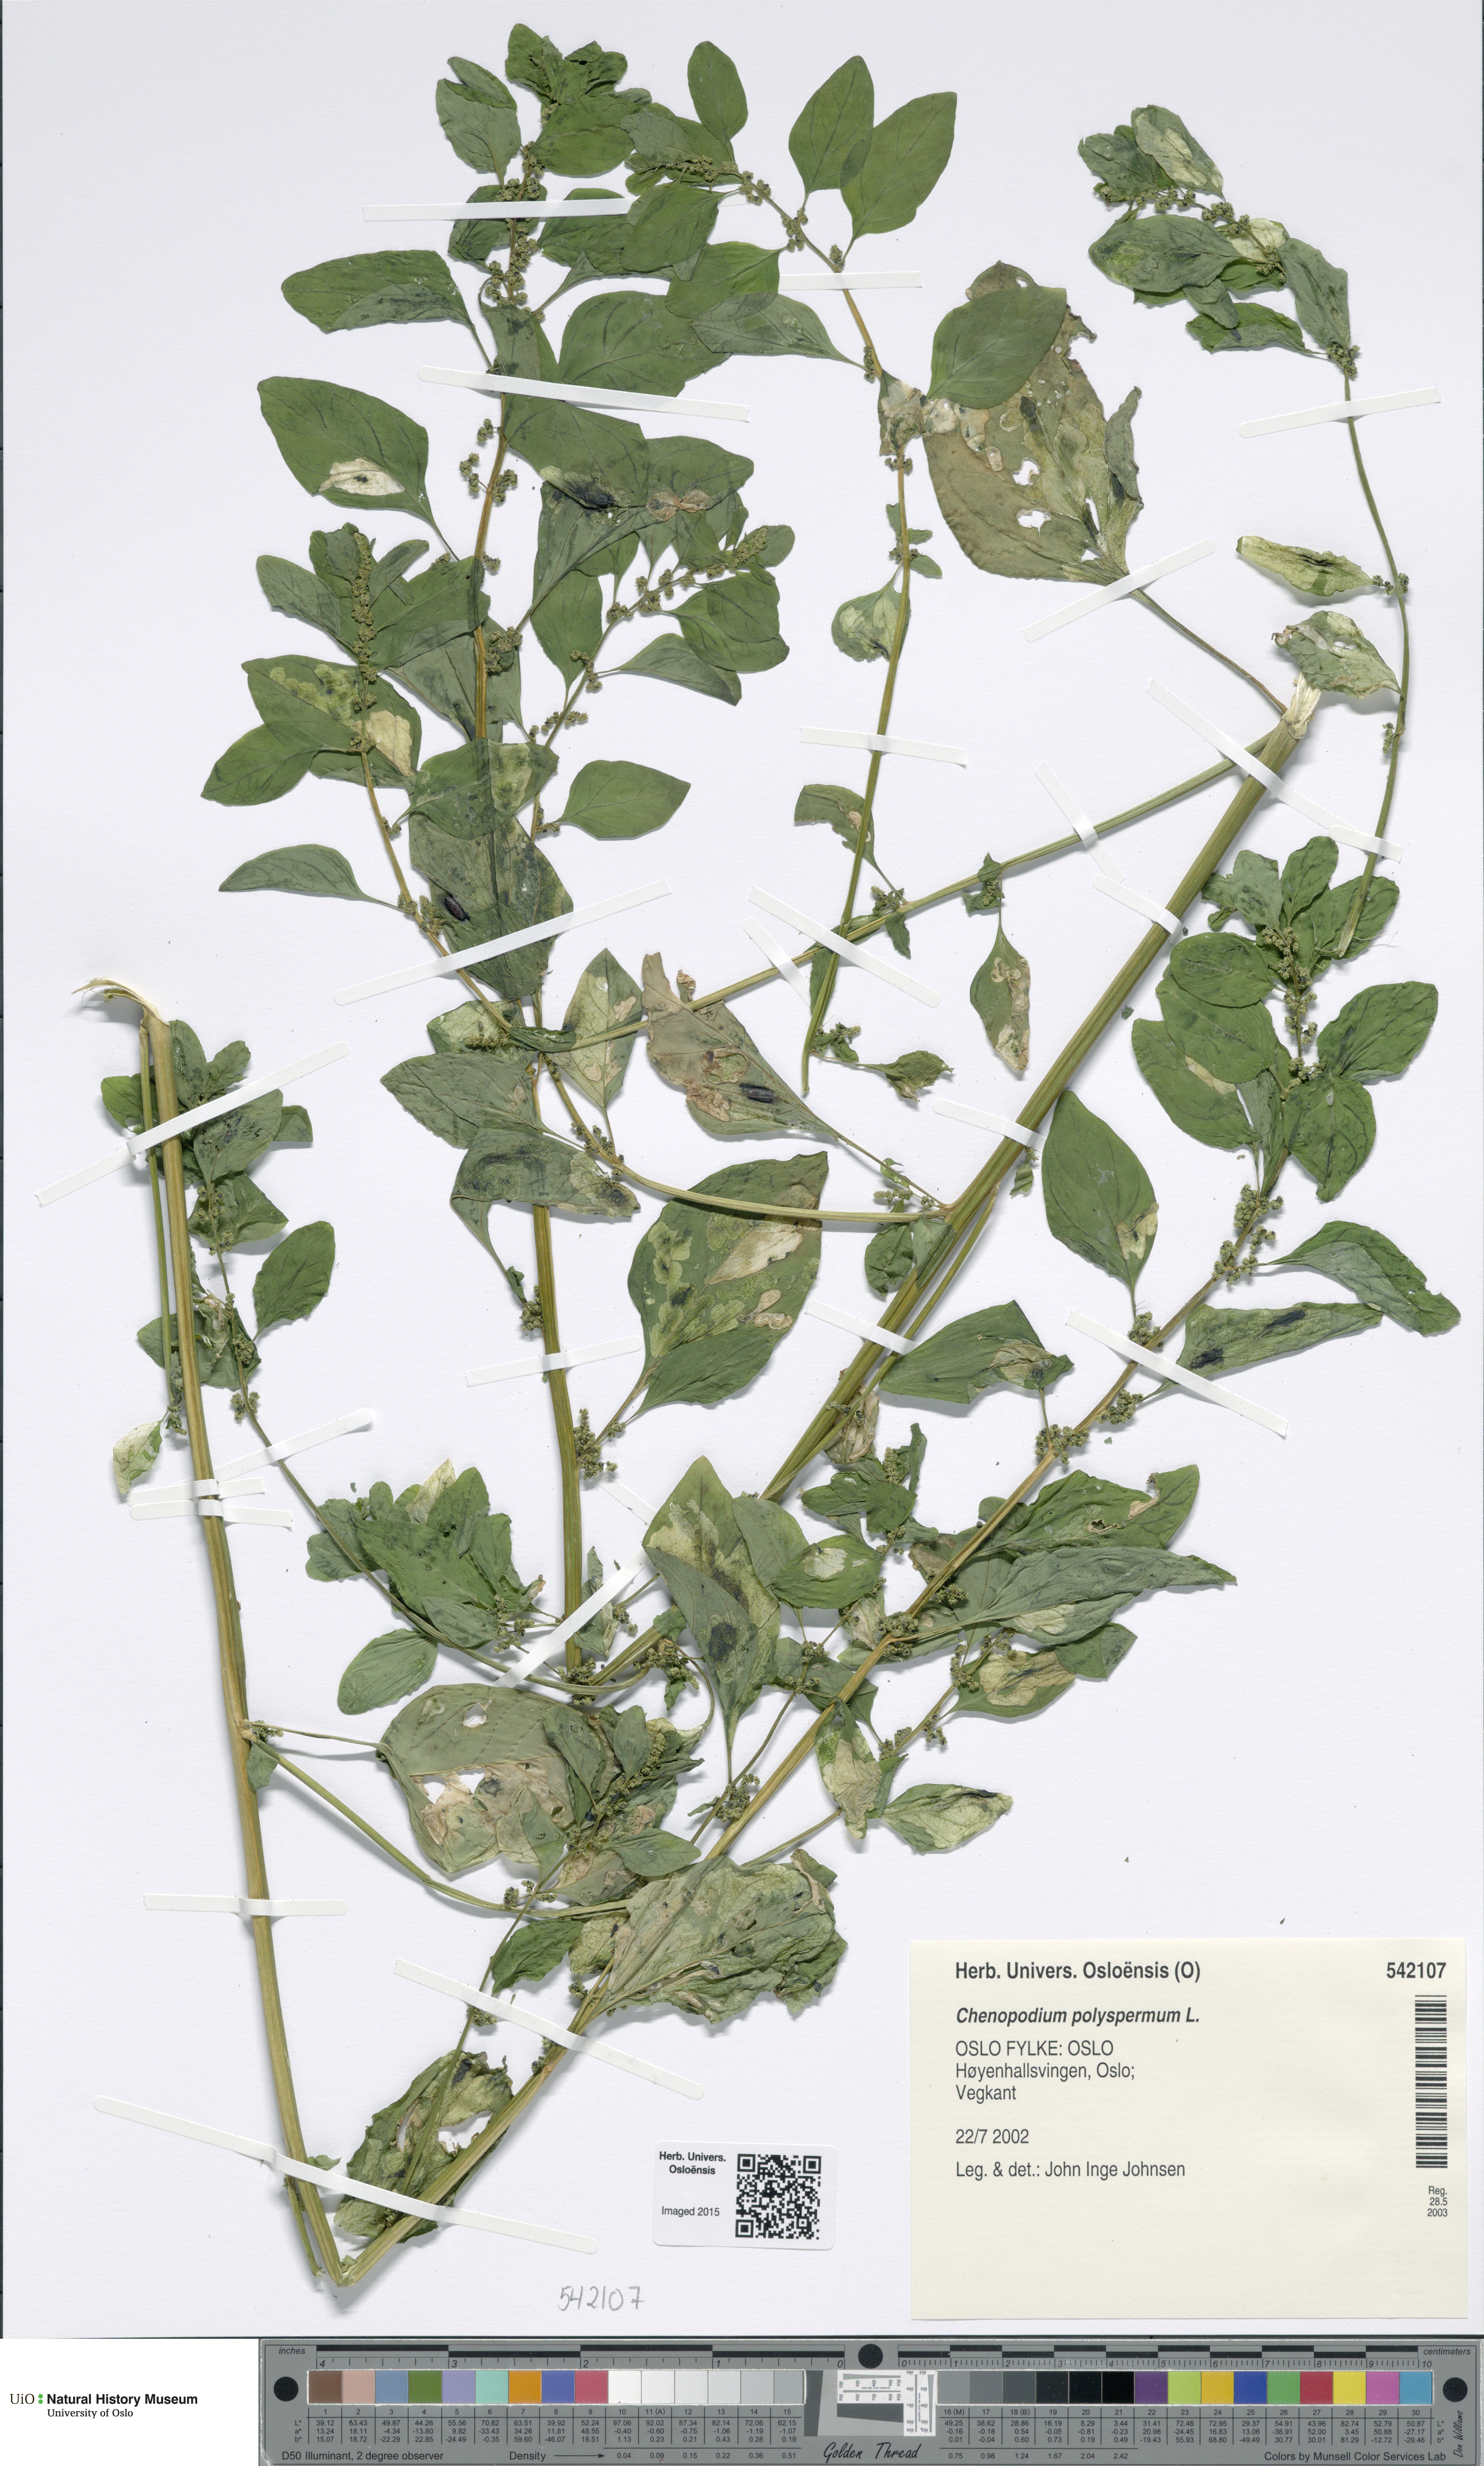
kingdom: Plantae
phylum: Tracheophyta
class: Magnoliopsida
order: Caryophyllales
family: Amaranthaceae
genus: Lipandra
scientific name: Lipandra polysperma
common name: Many-seed goosefoot
